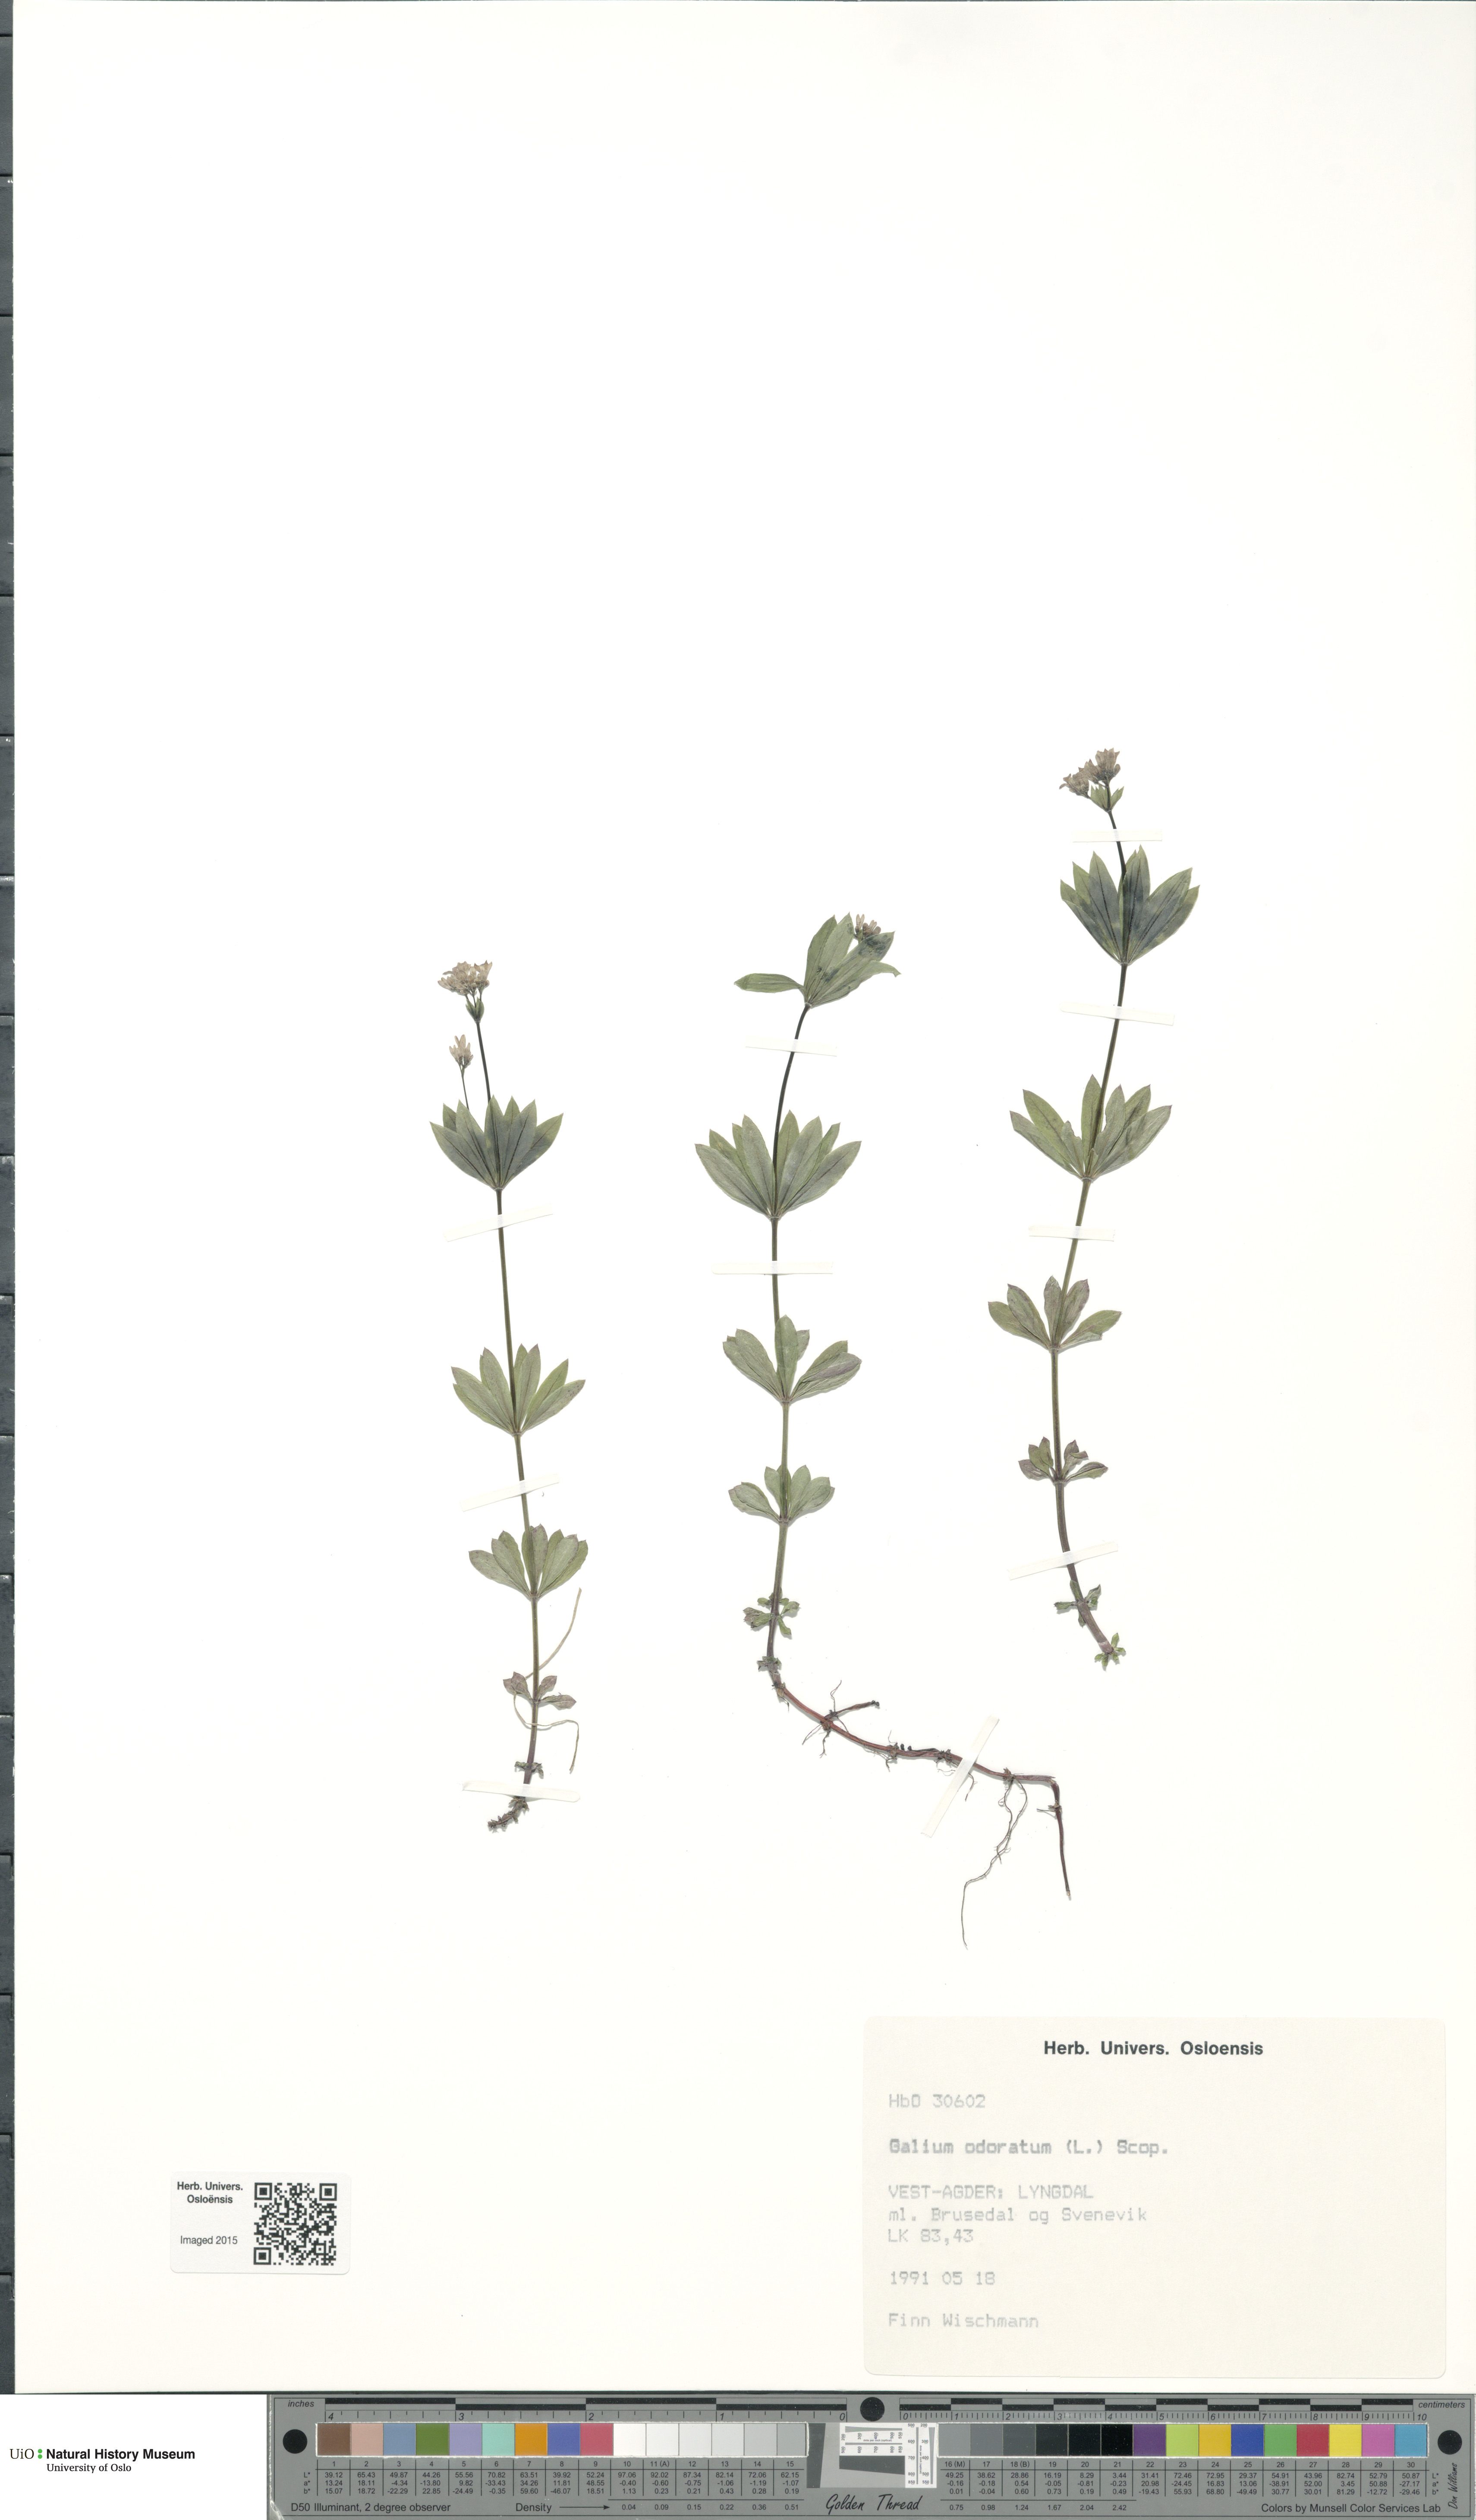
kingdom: Plantae
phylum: Tracheophyta
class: Magnoliopsida
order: Gentianales
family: Rubiaceae
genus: Galium
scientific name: Galium odoratum
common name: Sweet woodruff
